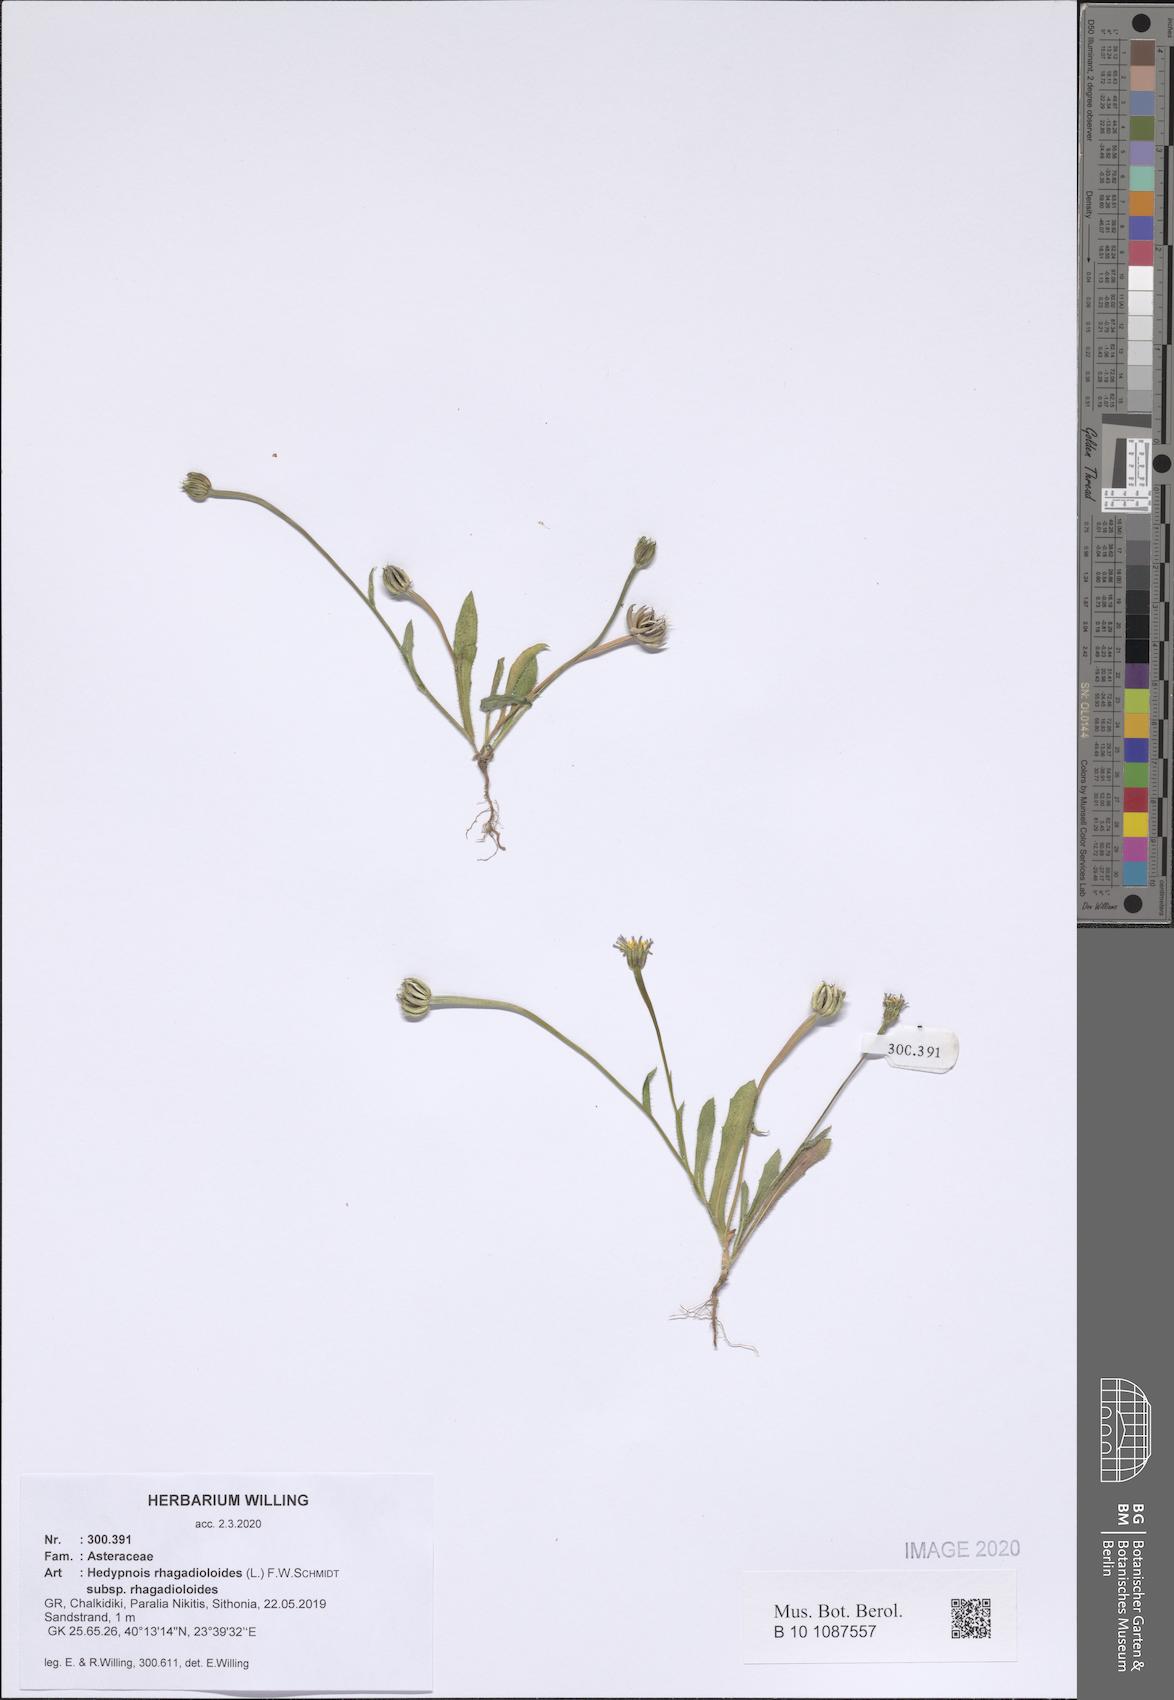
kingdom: Plantae
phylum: Tracheophyta
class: Magnoliopsida
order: Asterales
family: Asteraceae
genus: Hedypnois
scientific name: Hedypnois rhagadioloides
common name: Cretan weed
